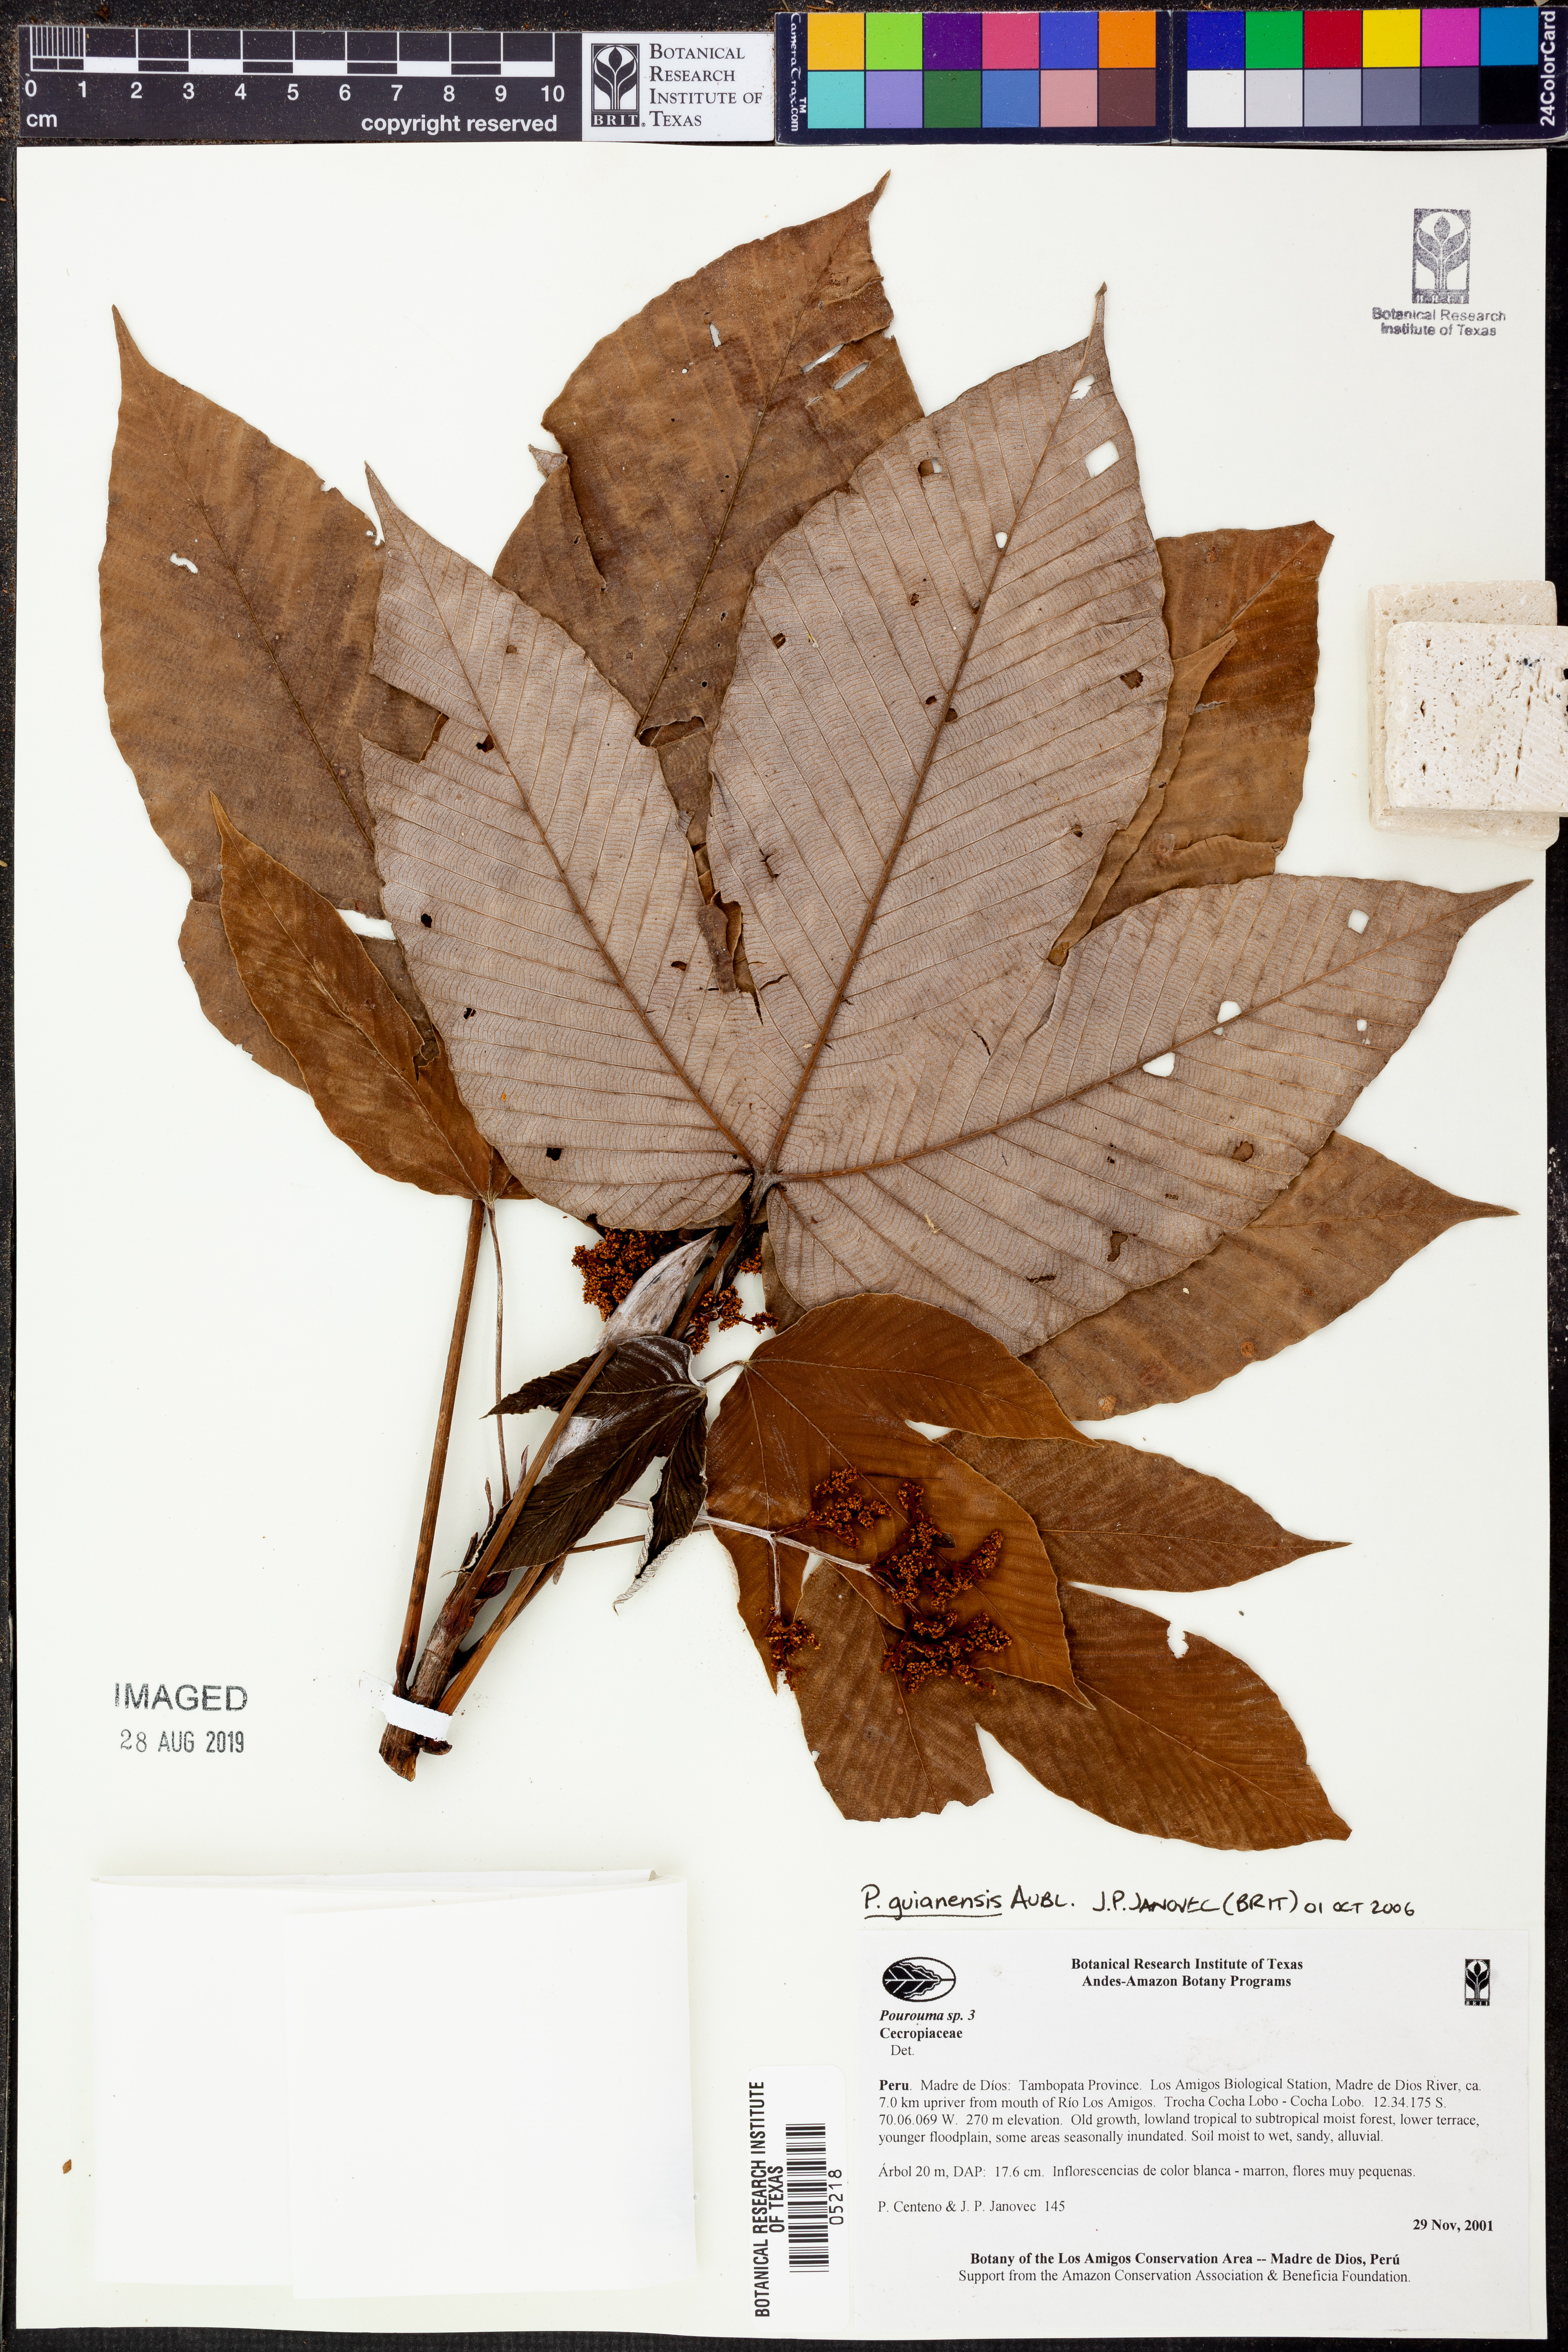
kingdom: Plantae
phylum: Tracheophyta
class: Magnoliopsida
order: Rosales
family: Urticaceae
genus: Pourouma
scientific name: Pourouma
